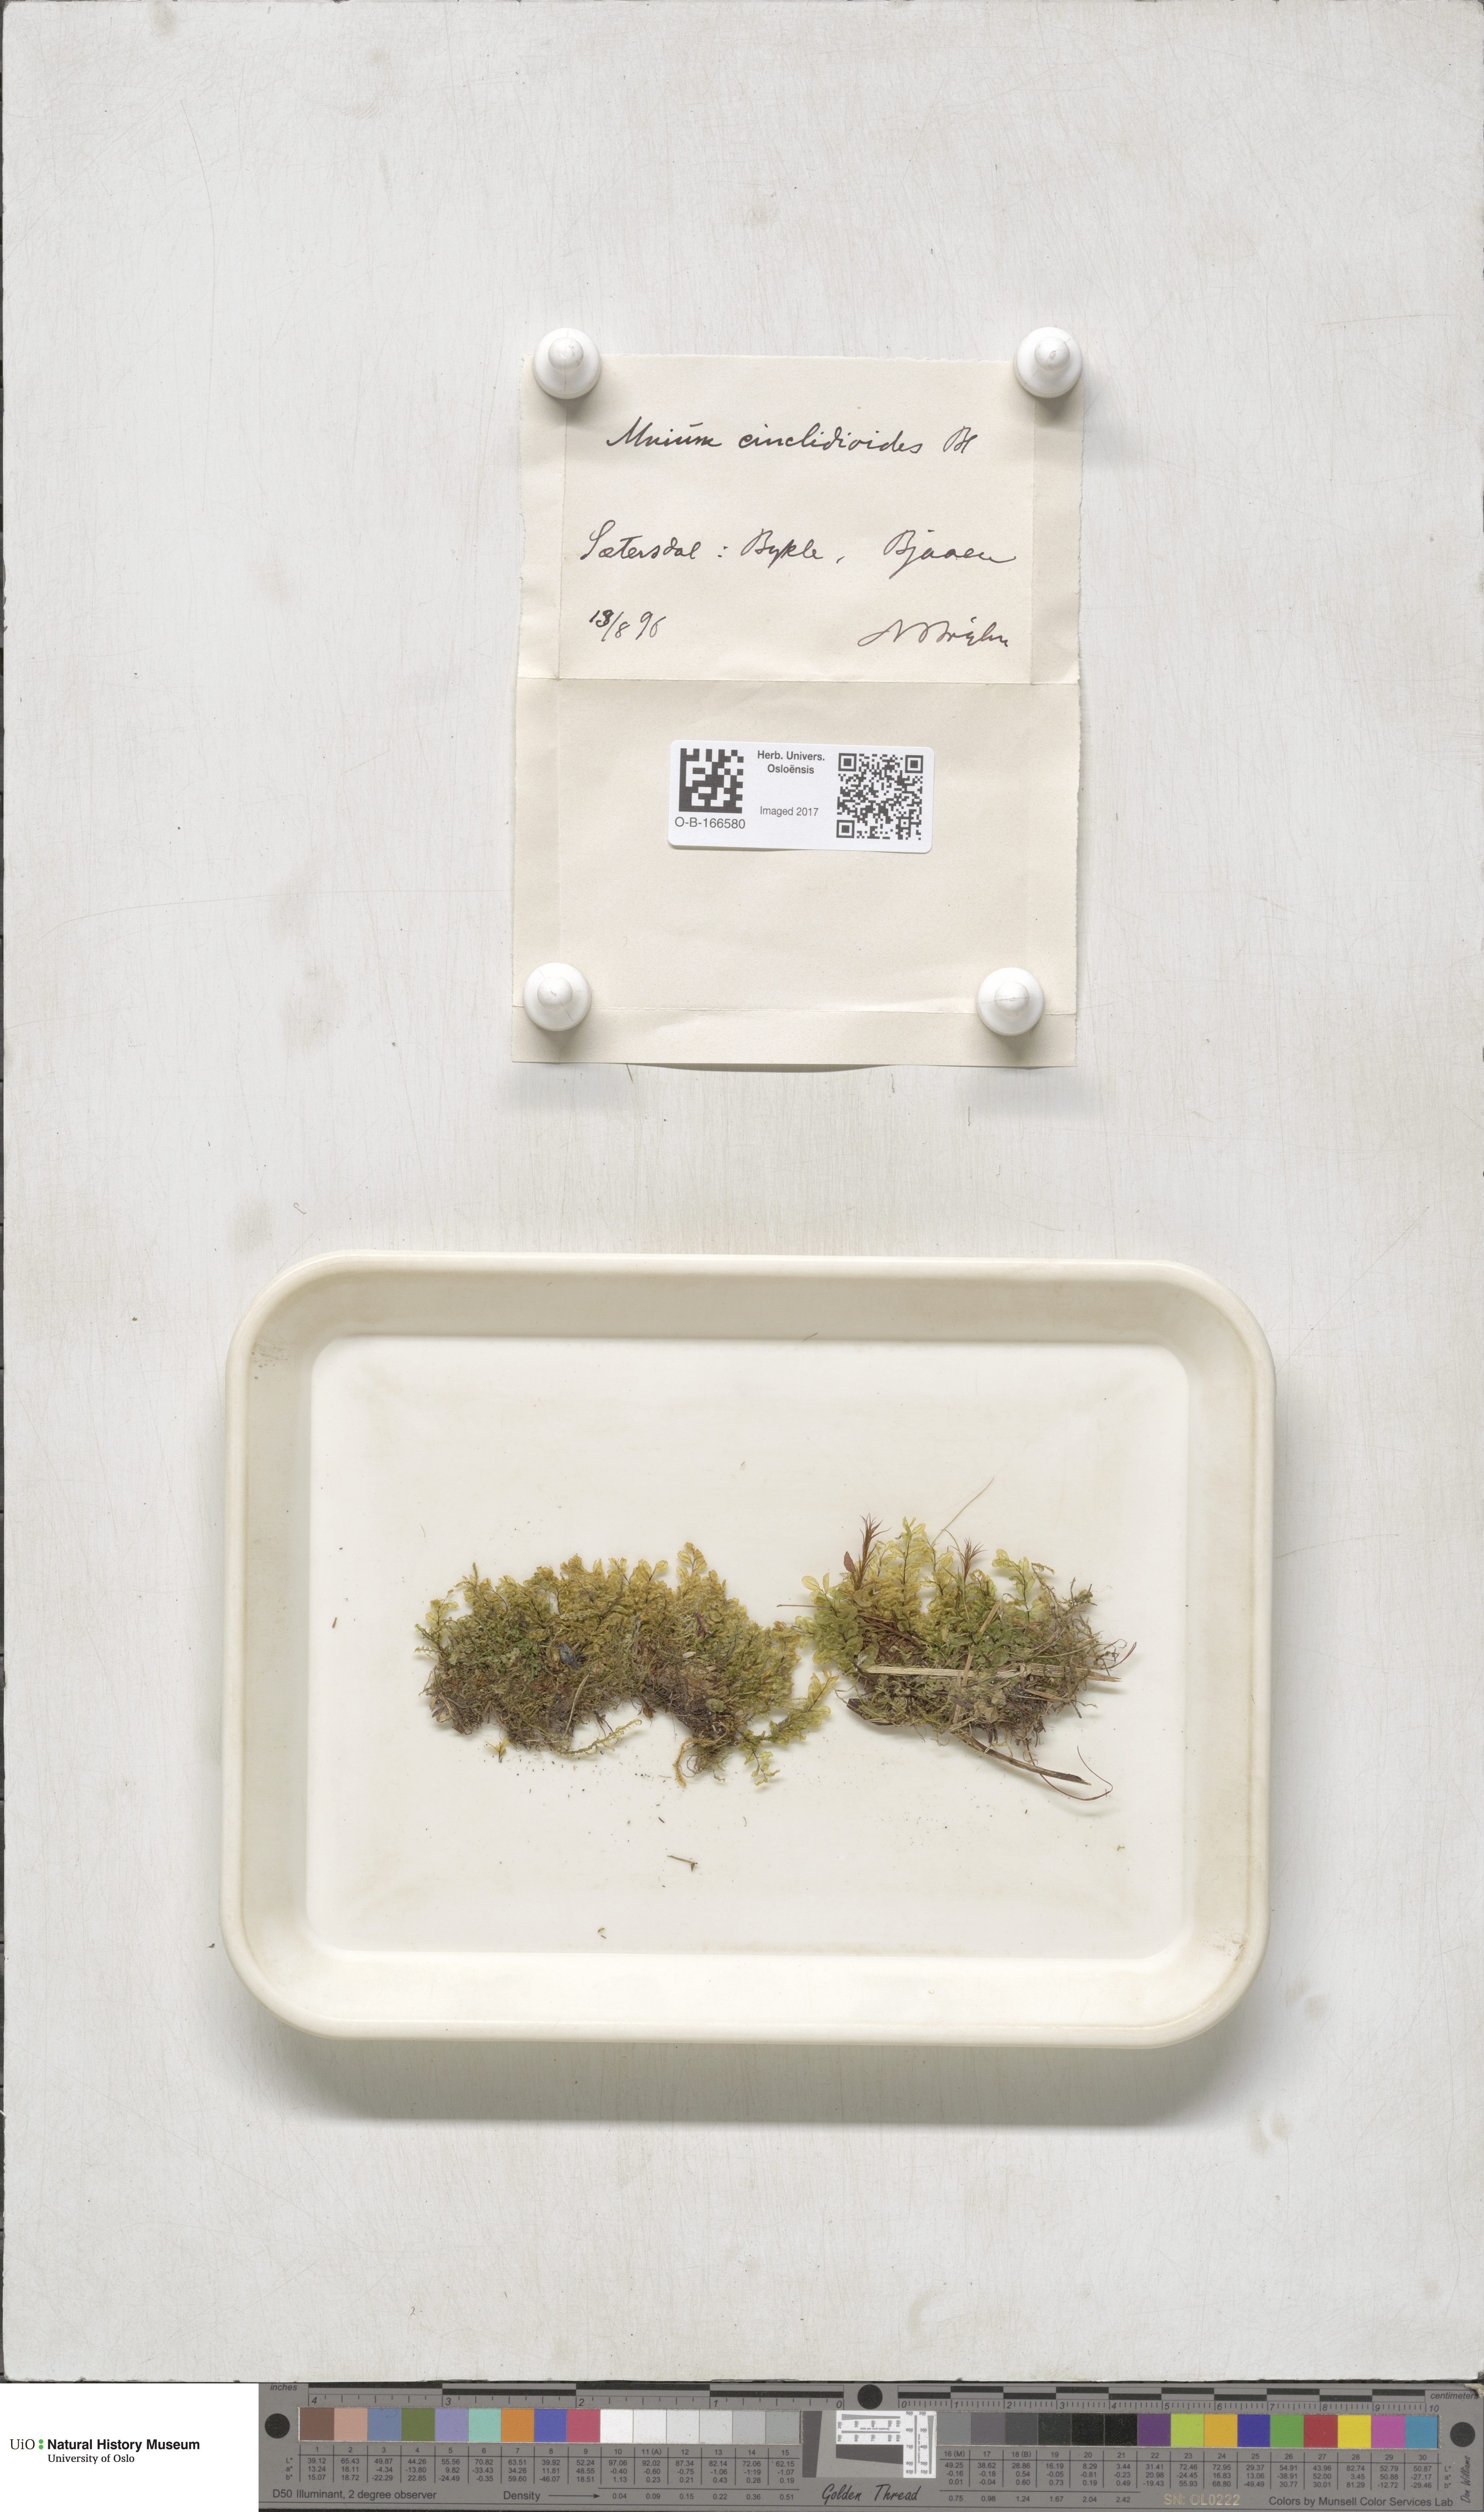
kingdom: Plantae
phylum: Bryophyta
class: Bryopsida
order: Bryales
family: Mniaceae
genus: Pseudobryum
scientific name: Pseudobryum cinclidioides
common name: River thyme moss
